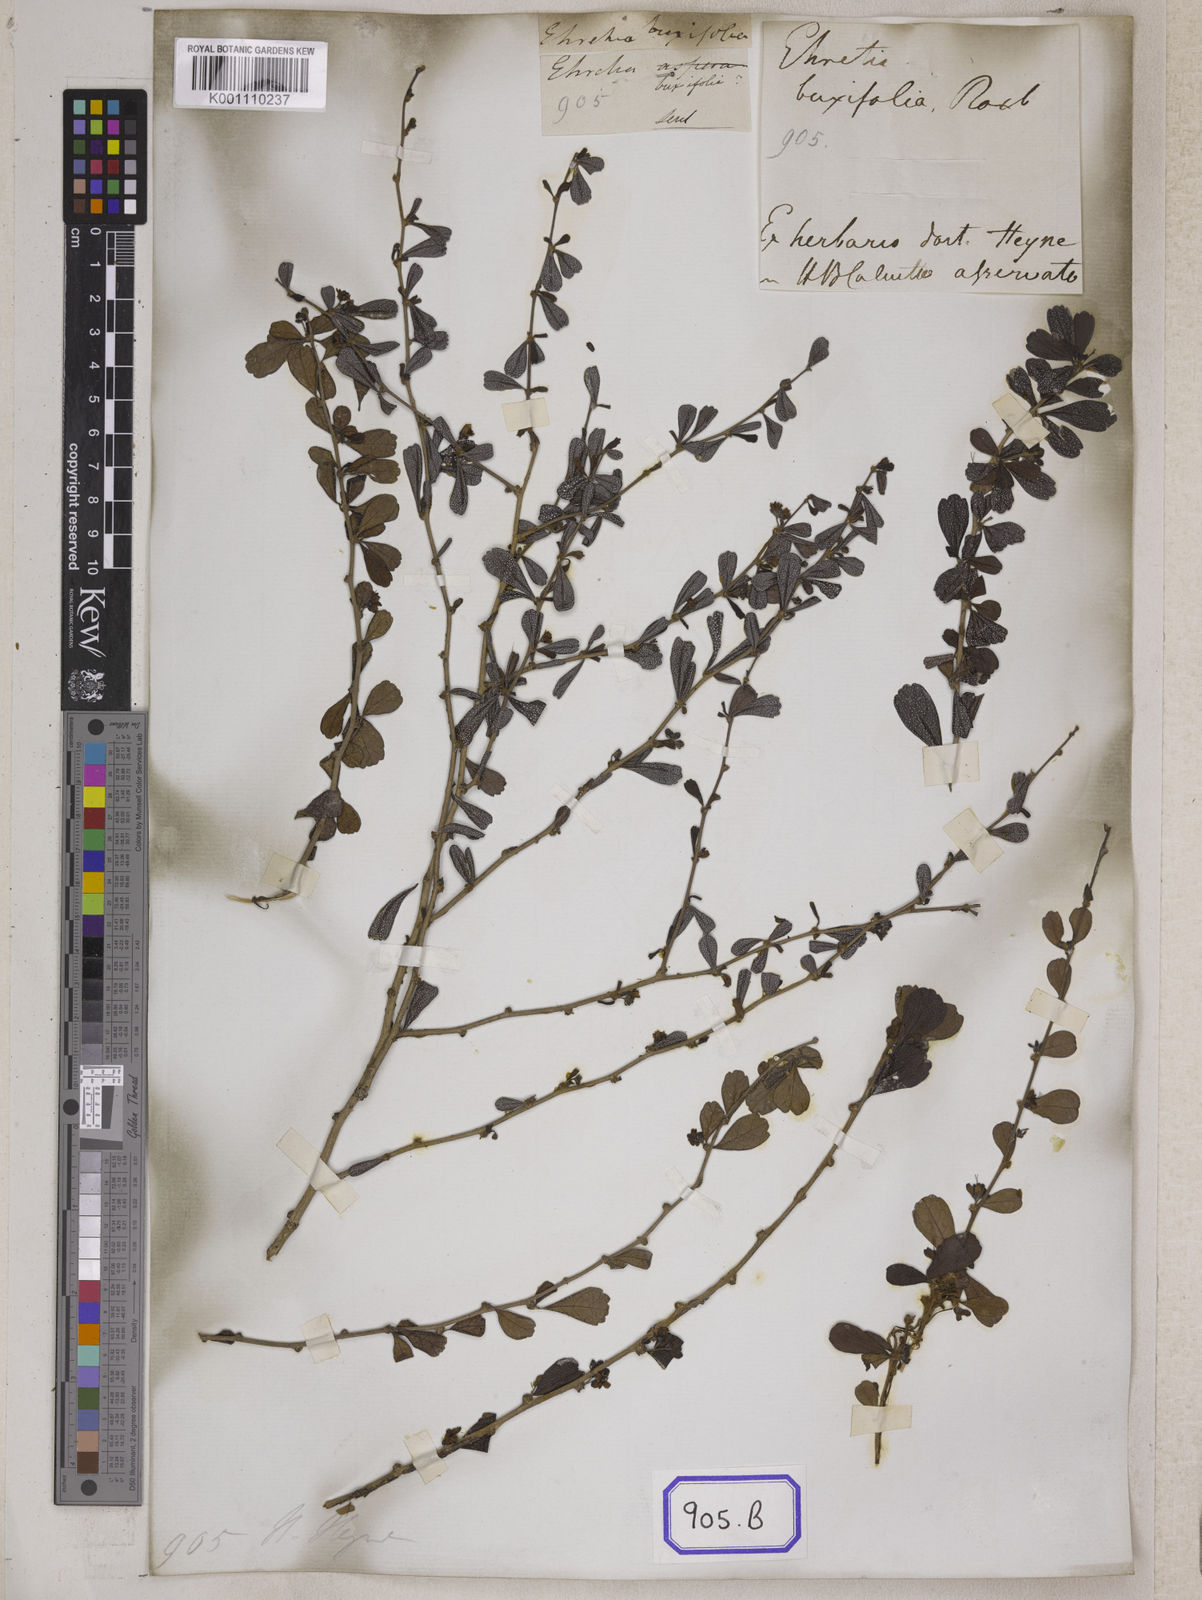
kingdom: Plantae
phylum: Tracheophyta
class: Magnoliopsida
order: Boraginales
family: Ehretiaceae
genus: Ehretia
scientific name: Ehretia microphylla
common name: Fukien-tea
